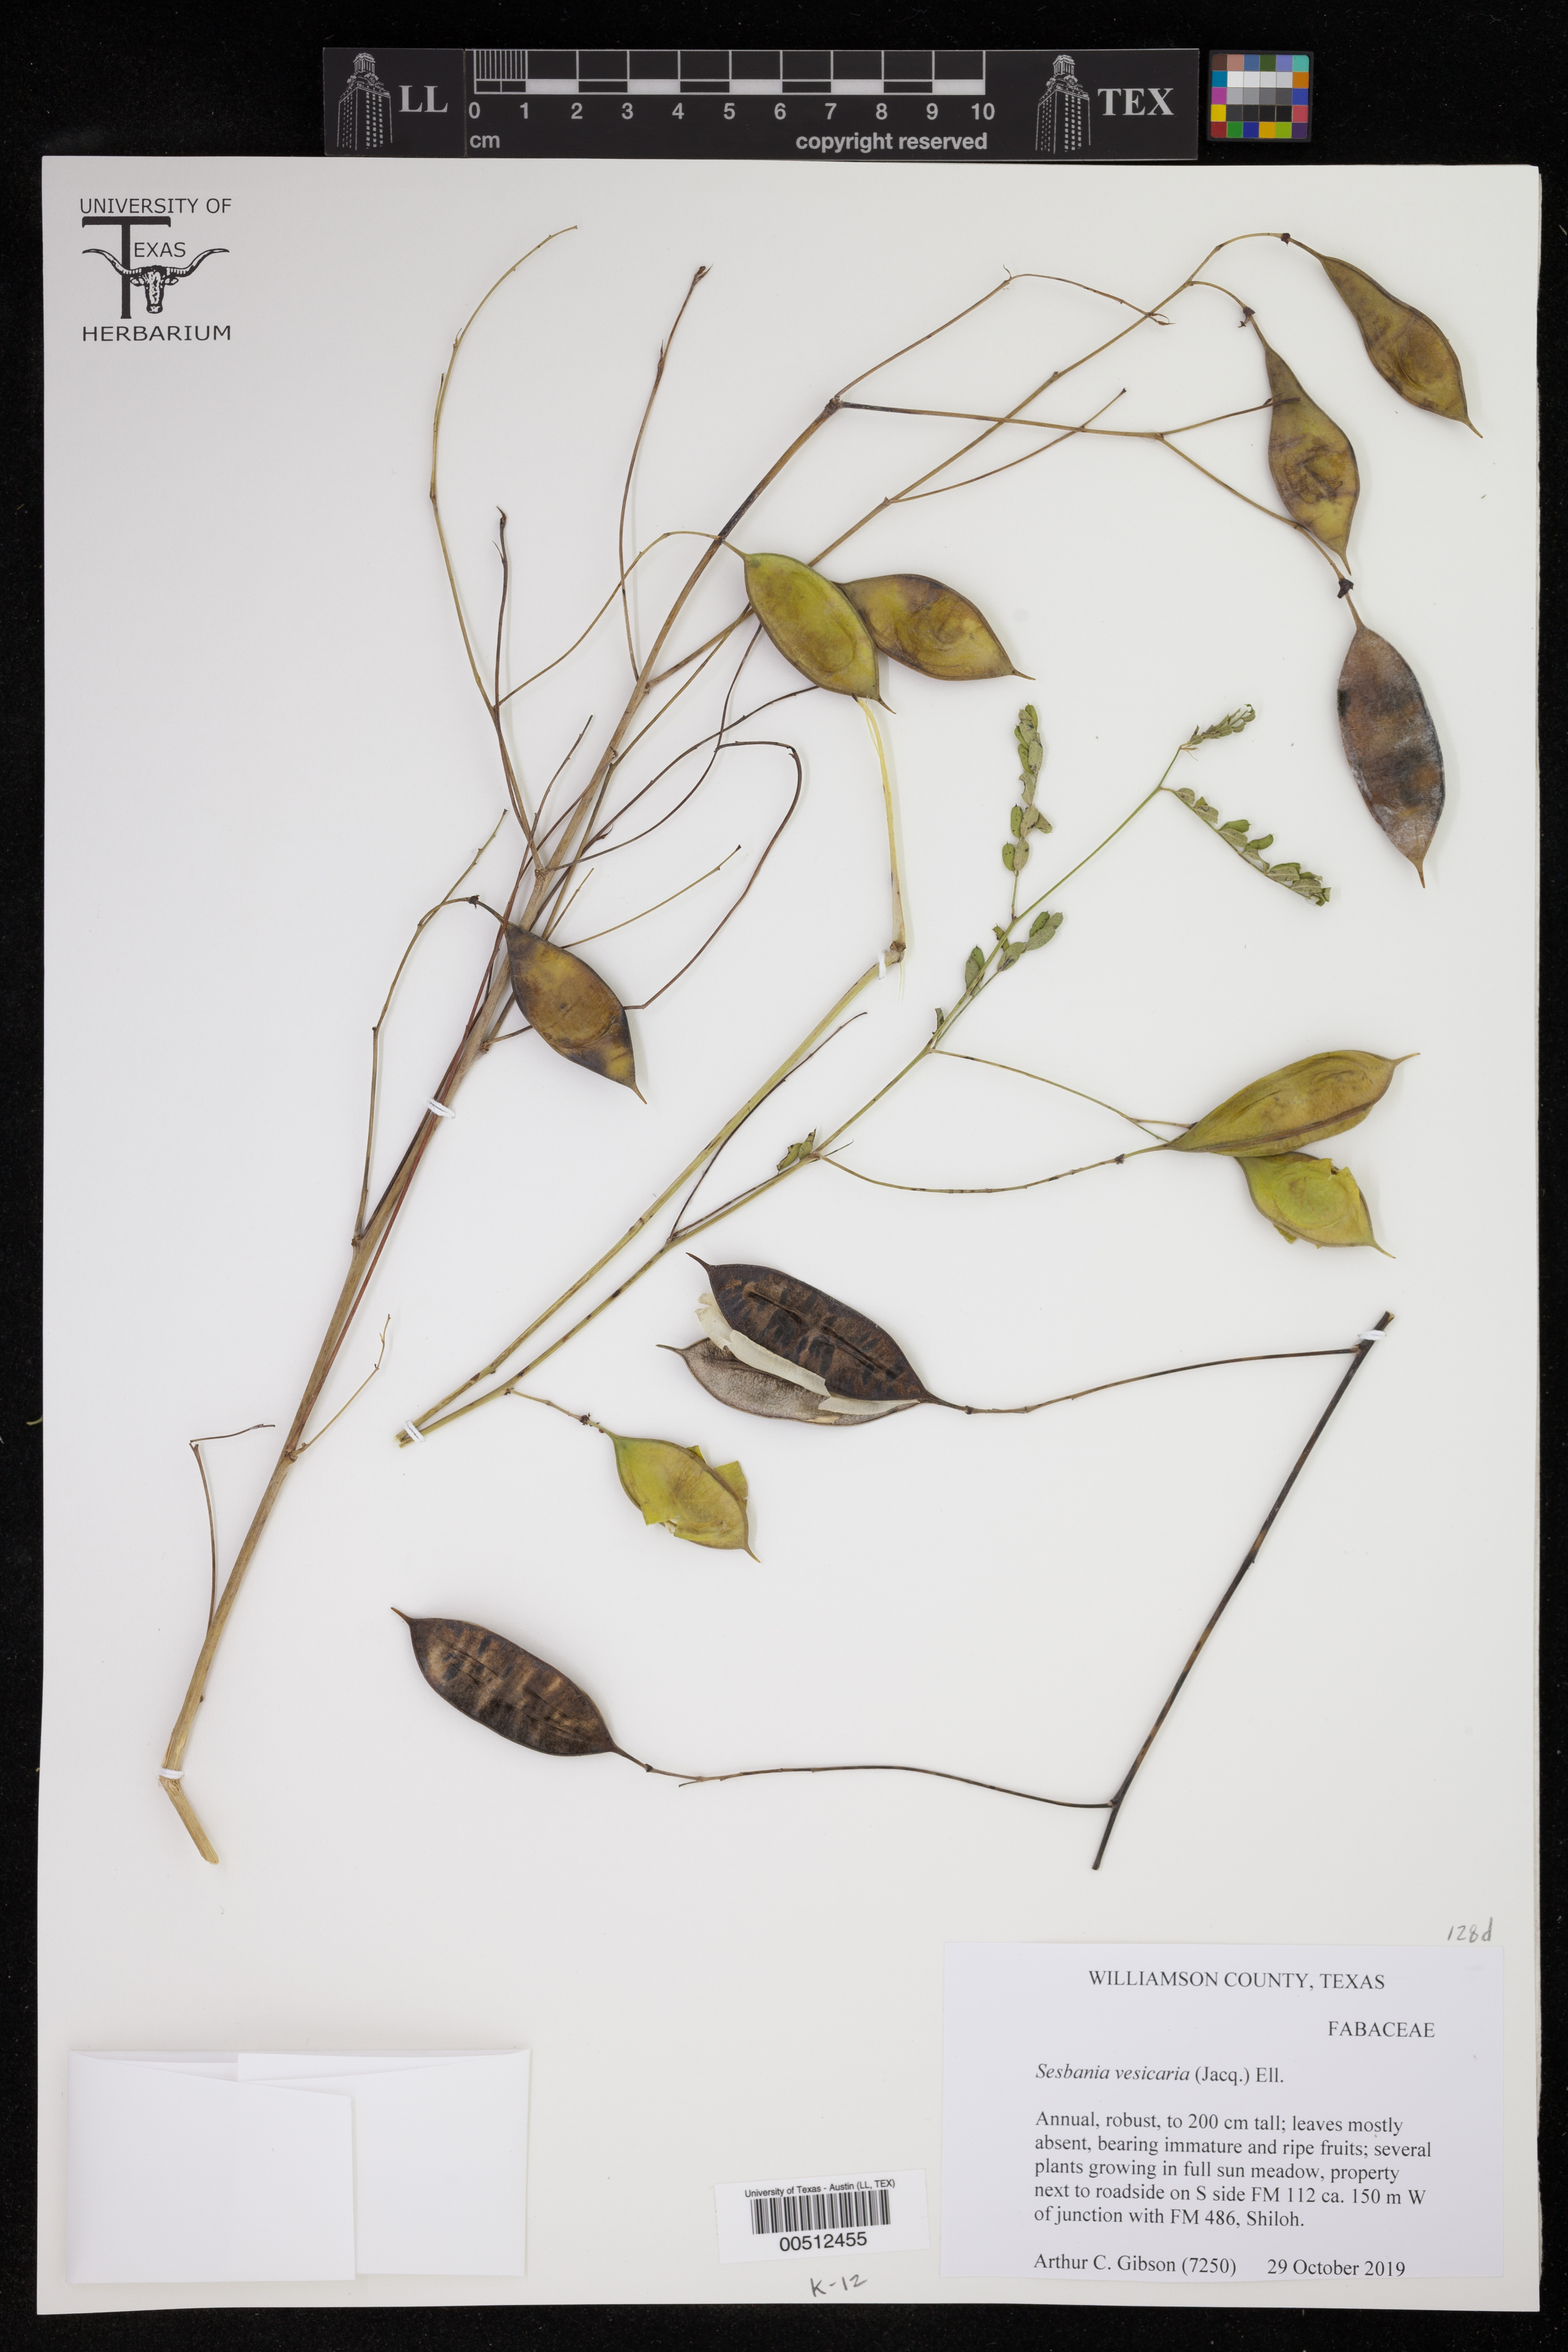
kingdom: Plantae
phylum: Tracheophyta
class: Magnoliopsida
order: Fabales
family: Fabaceae
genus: Sesbania
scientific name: Sesbania vesicaria
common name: Bagpod
